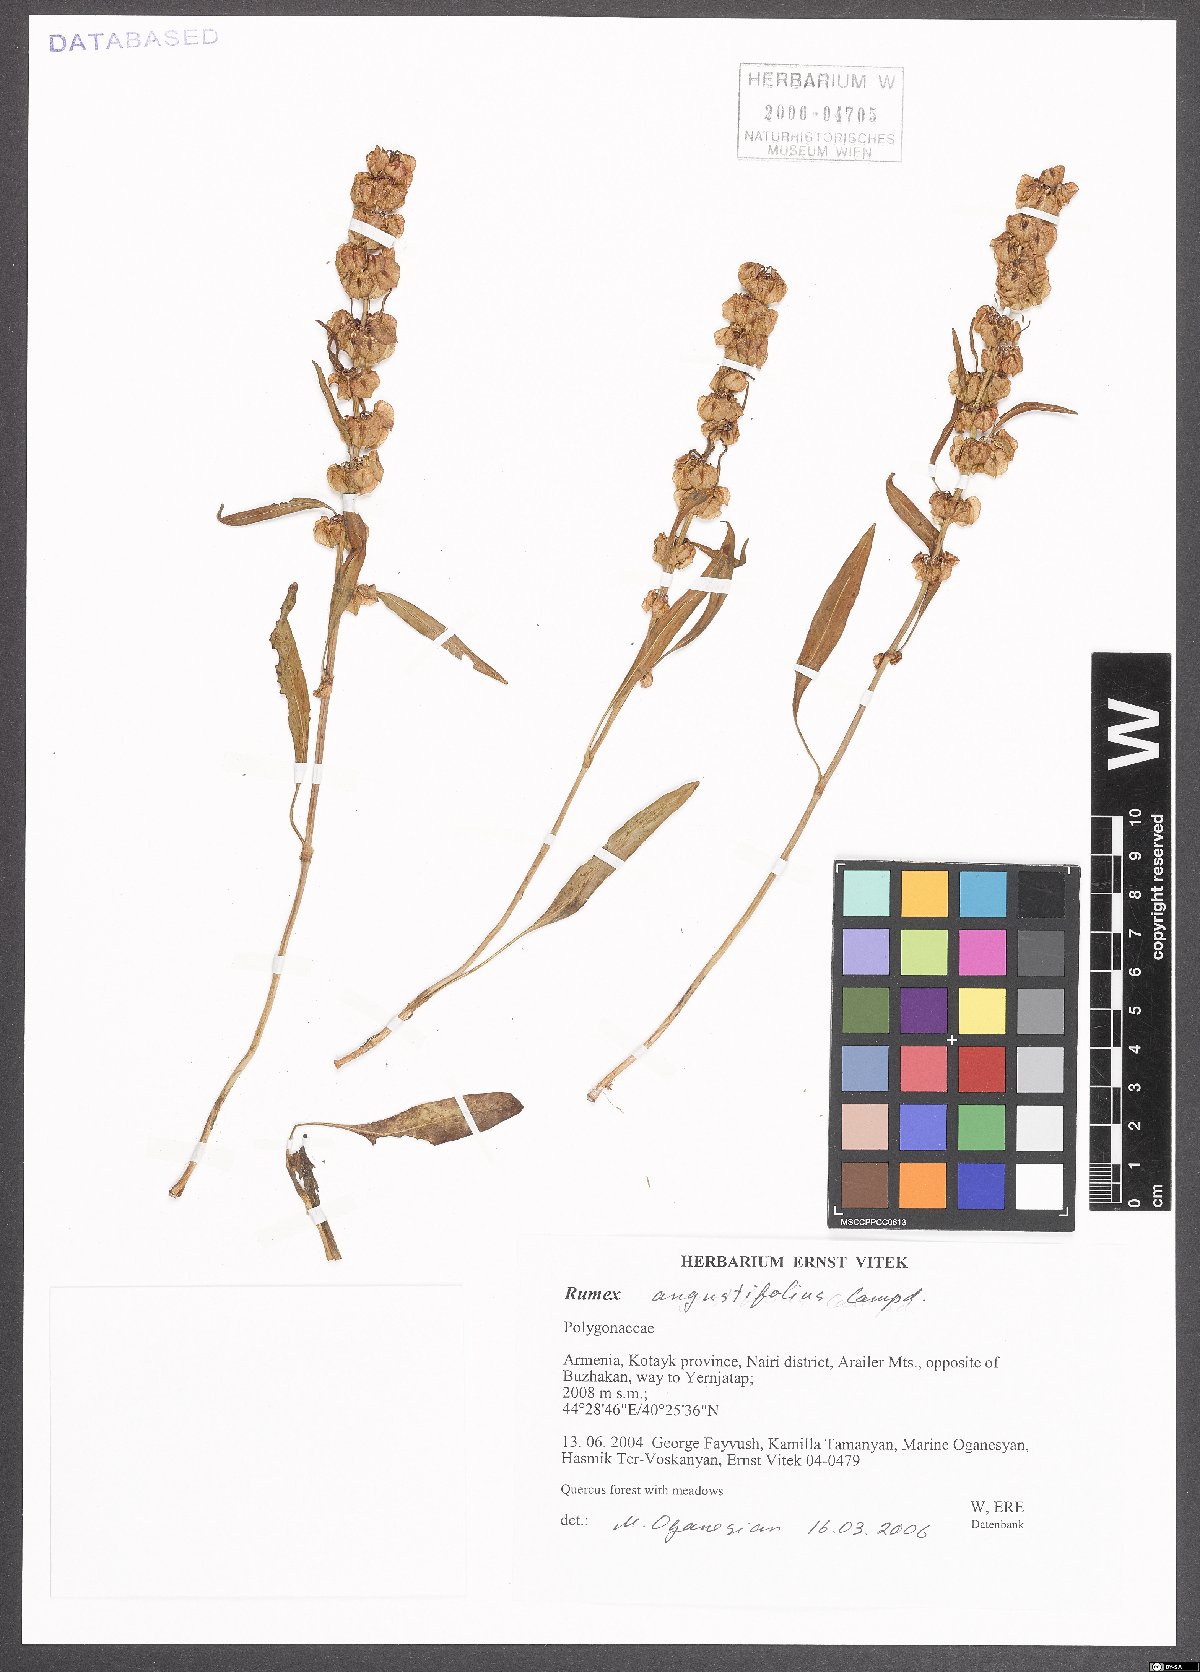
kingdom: Plantae
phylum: Tracheophyta
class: Magnoliopsida
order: Caryophyllales
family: Polygonaceae
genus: Rumex
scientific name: Rumex angustifolius
